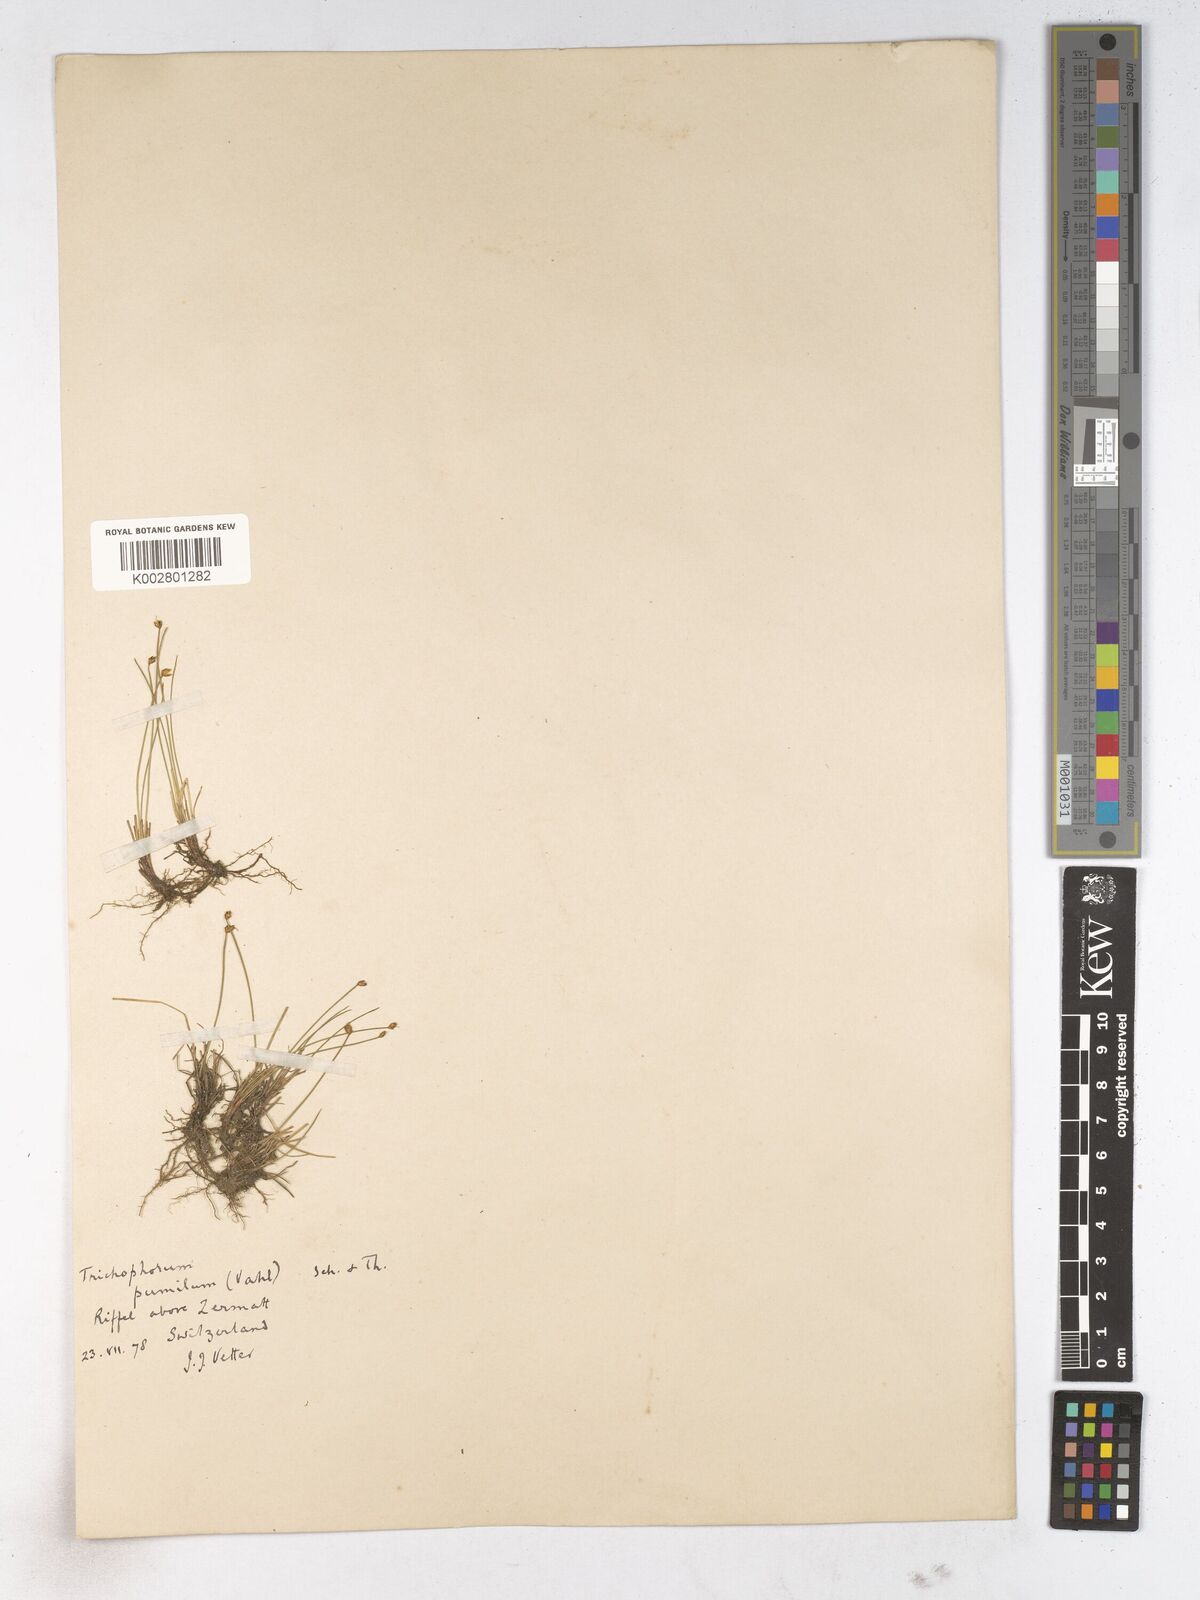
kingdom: Plantae
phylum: Tracheophyta
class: Liliopsida
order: Poales
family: Cyperaceae
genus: Trichophorum
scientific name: Trichophorum pumilum
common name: Rolland's bulrush
